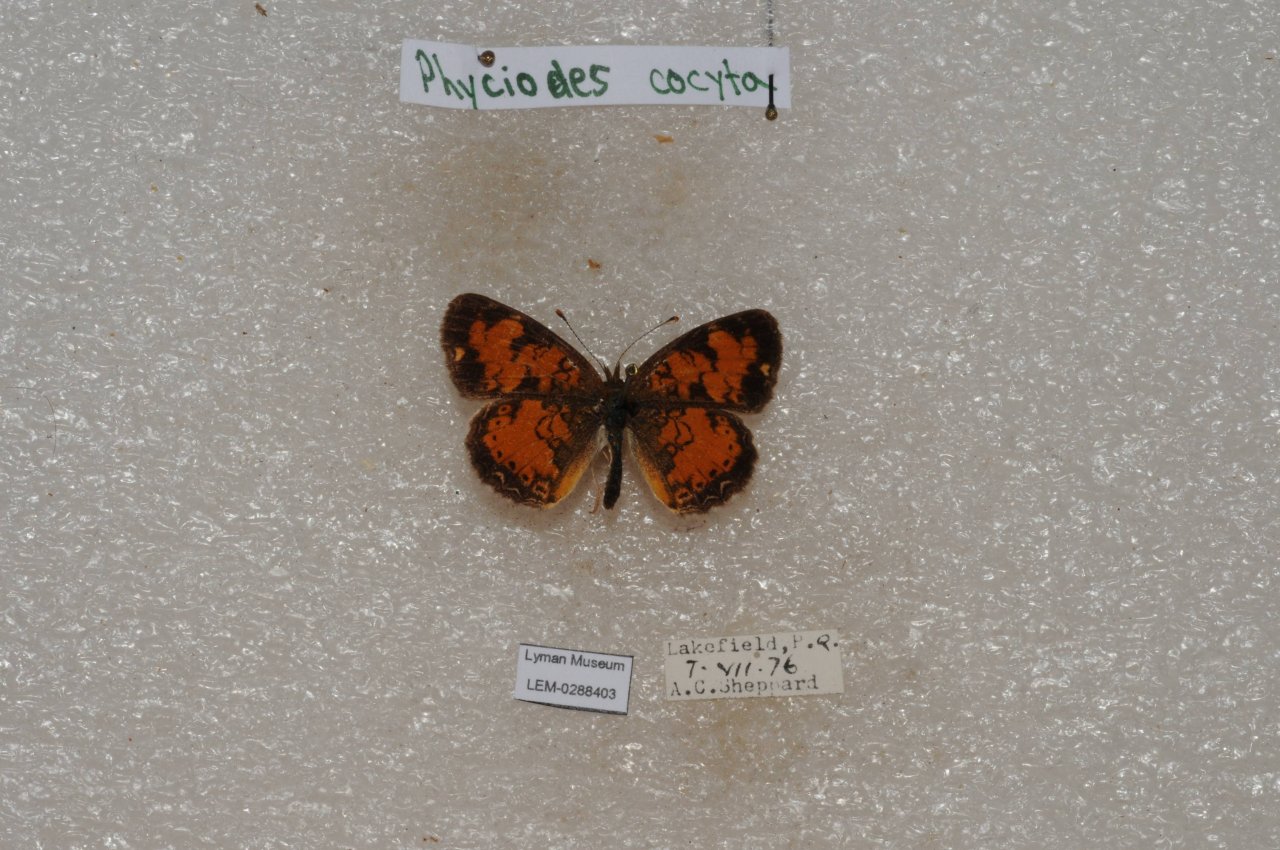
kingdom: Animalia
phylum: Arthropoda
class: Insecta
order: Lepidoptera
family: Nymphalidae
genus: Phyciodes
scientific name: Phyciodes tharos
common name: Northern Crescent
